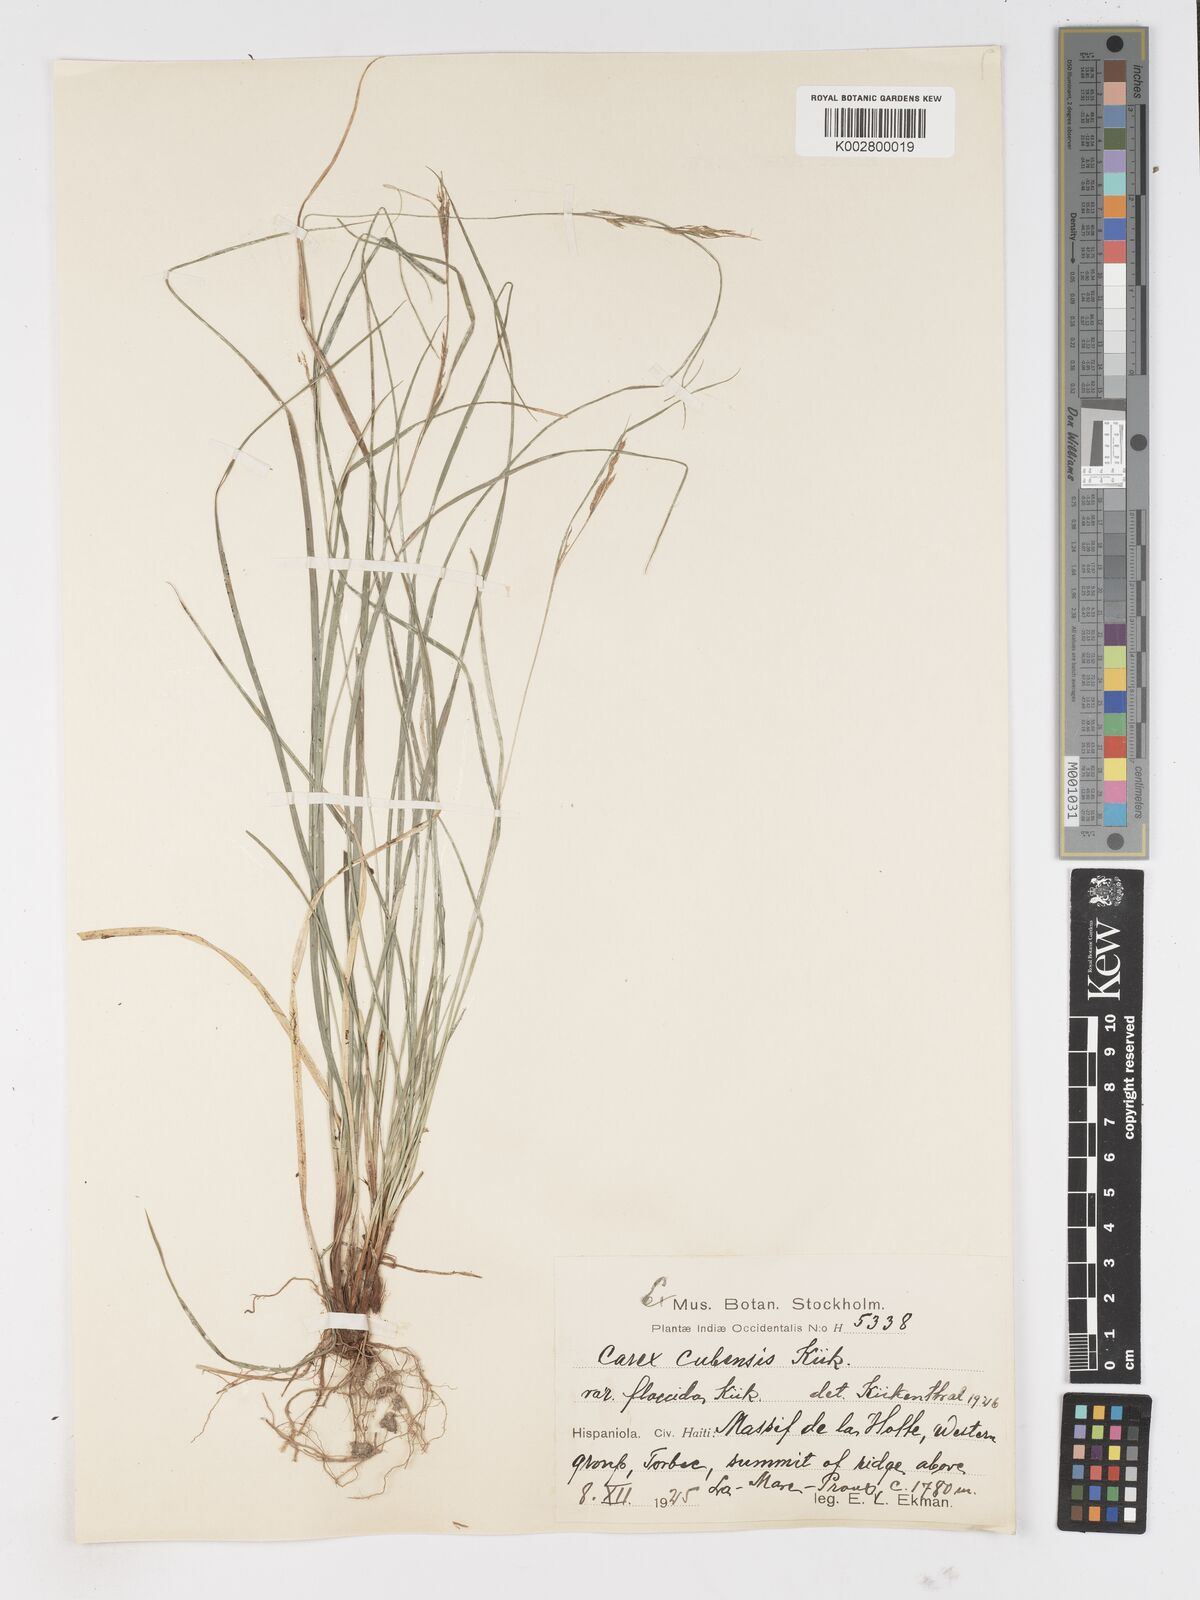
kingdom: Plantae
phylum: Tracheophyta
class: Liliopsida
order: Poales
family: Cyperaceae
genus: Carex
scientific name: Carex cubensis
